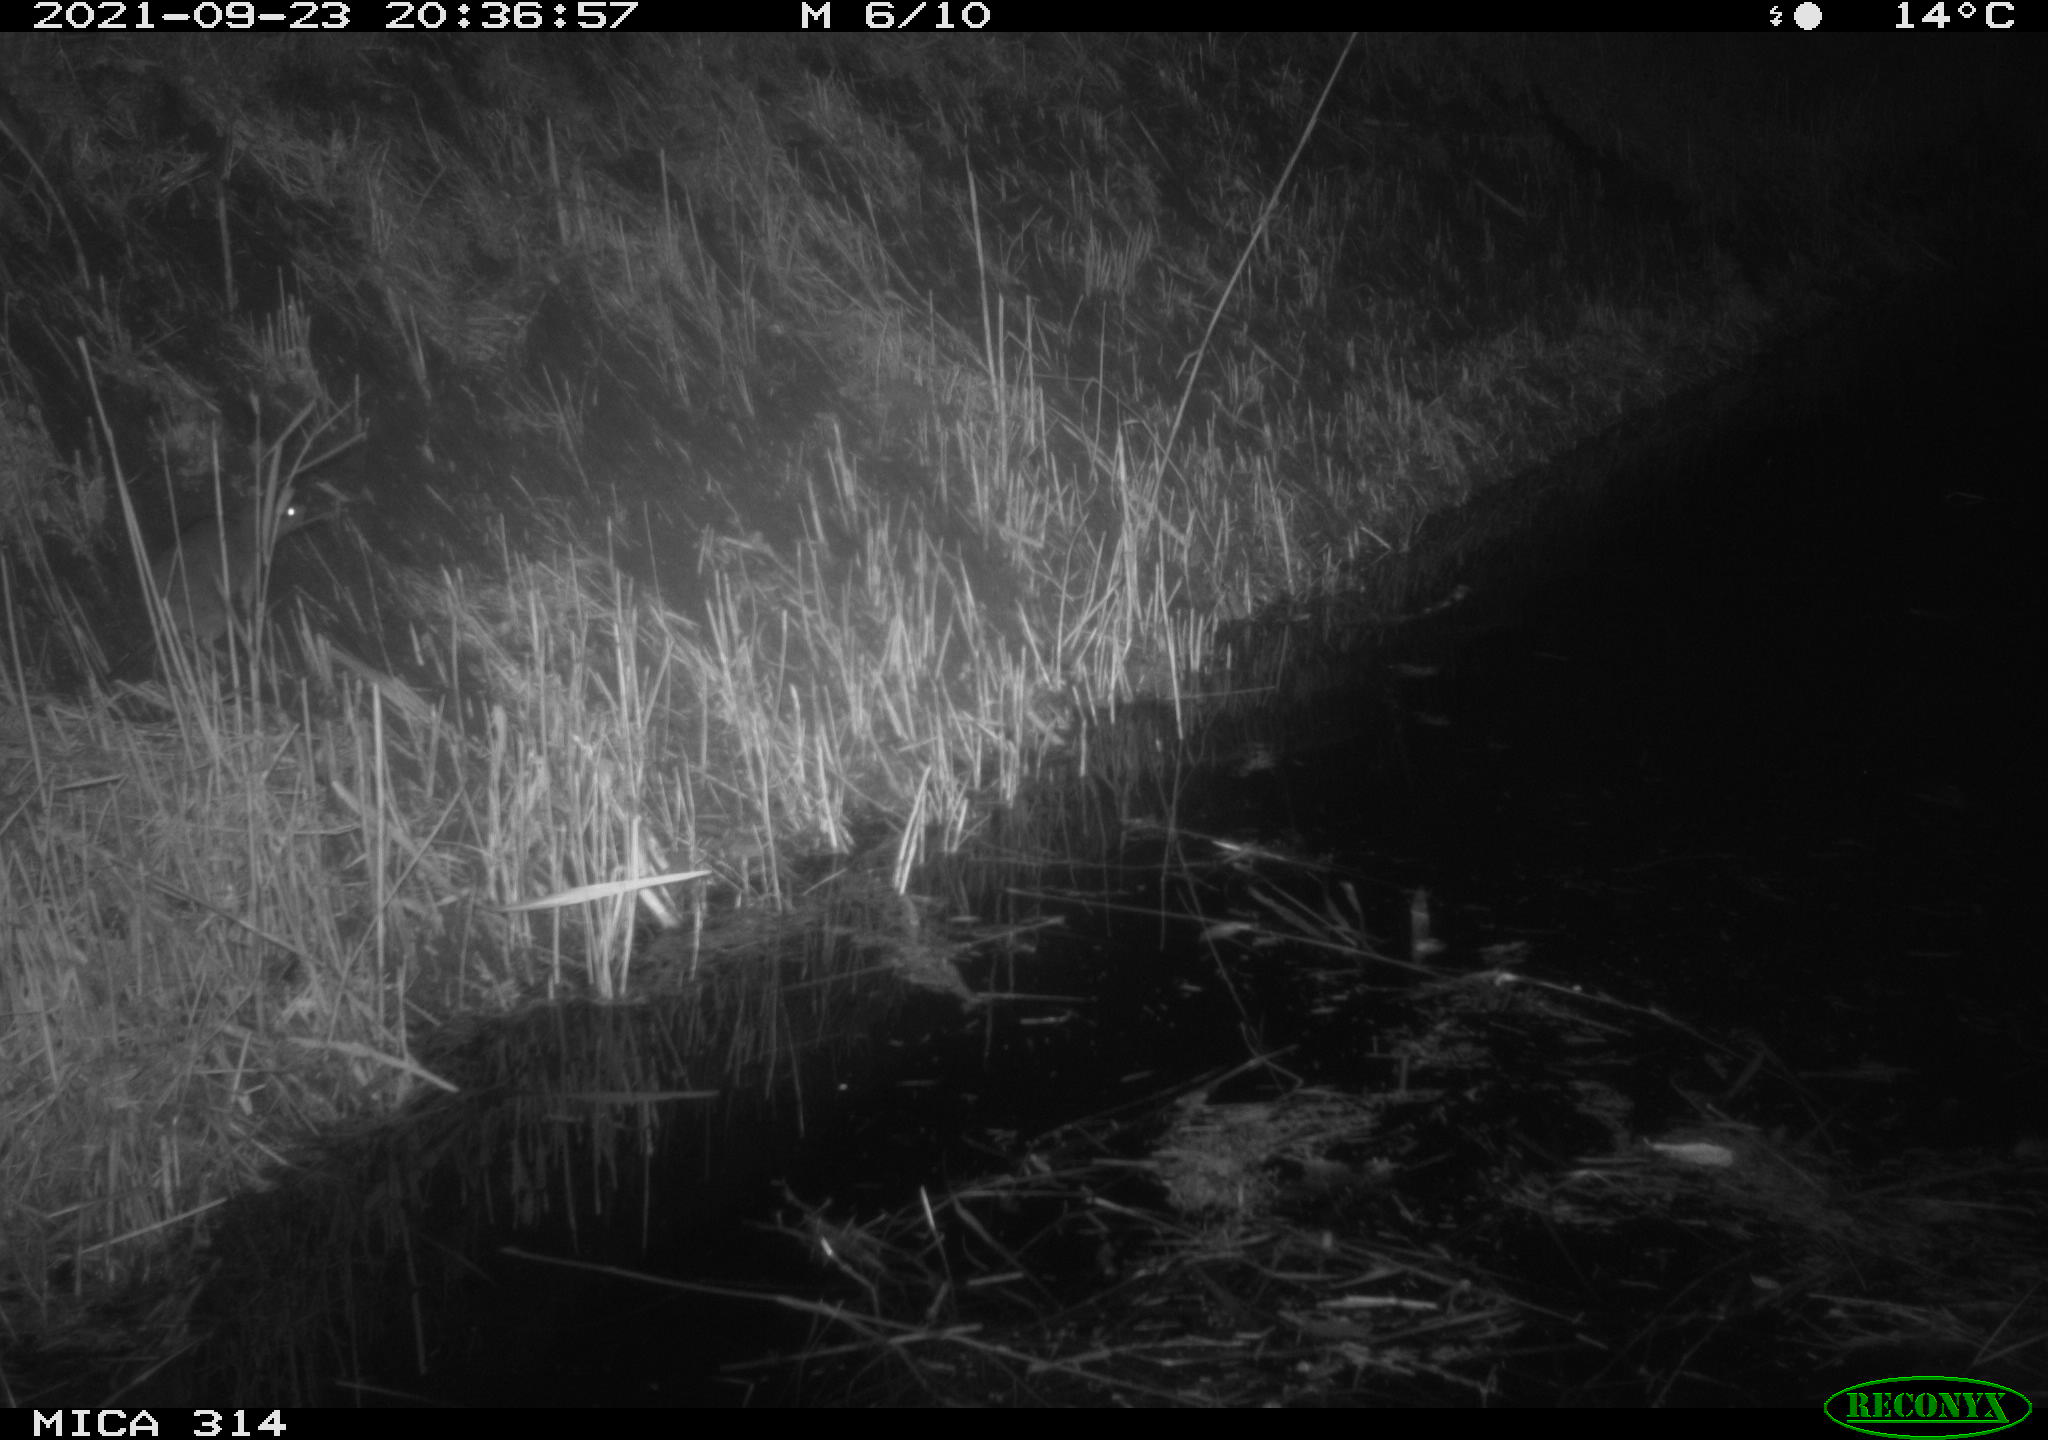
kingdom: Animalia
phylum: Chordata
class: Mammalia
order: Rodentia
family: Muridae
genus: Rattus
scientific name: Rattus norvegicus
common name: Brown rat
